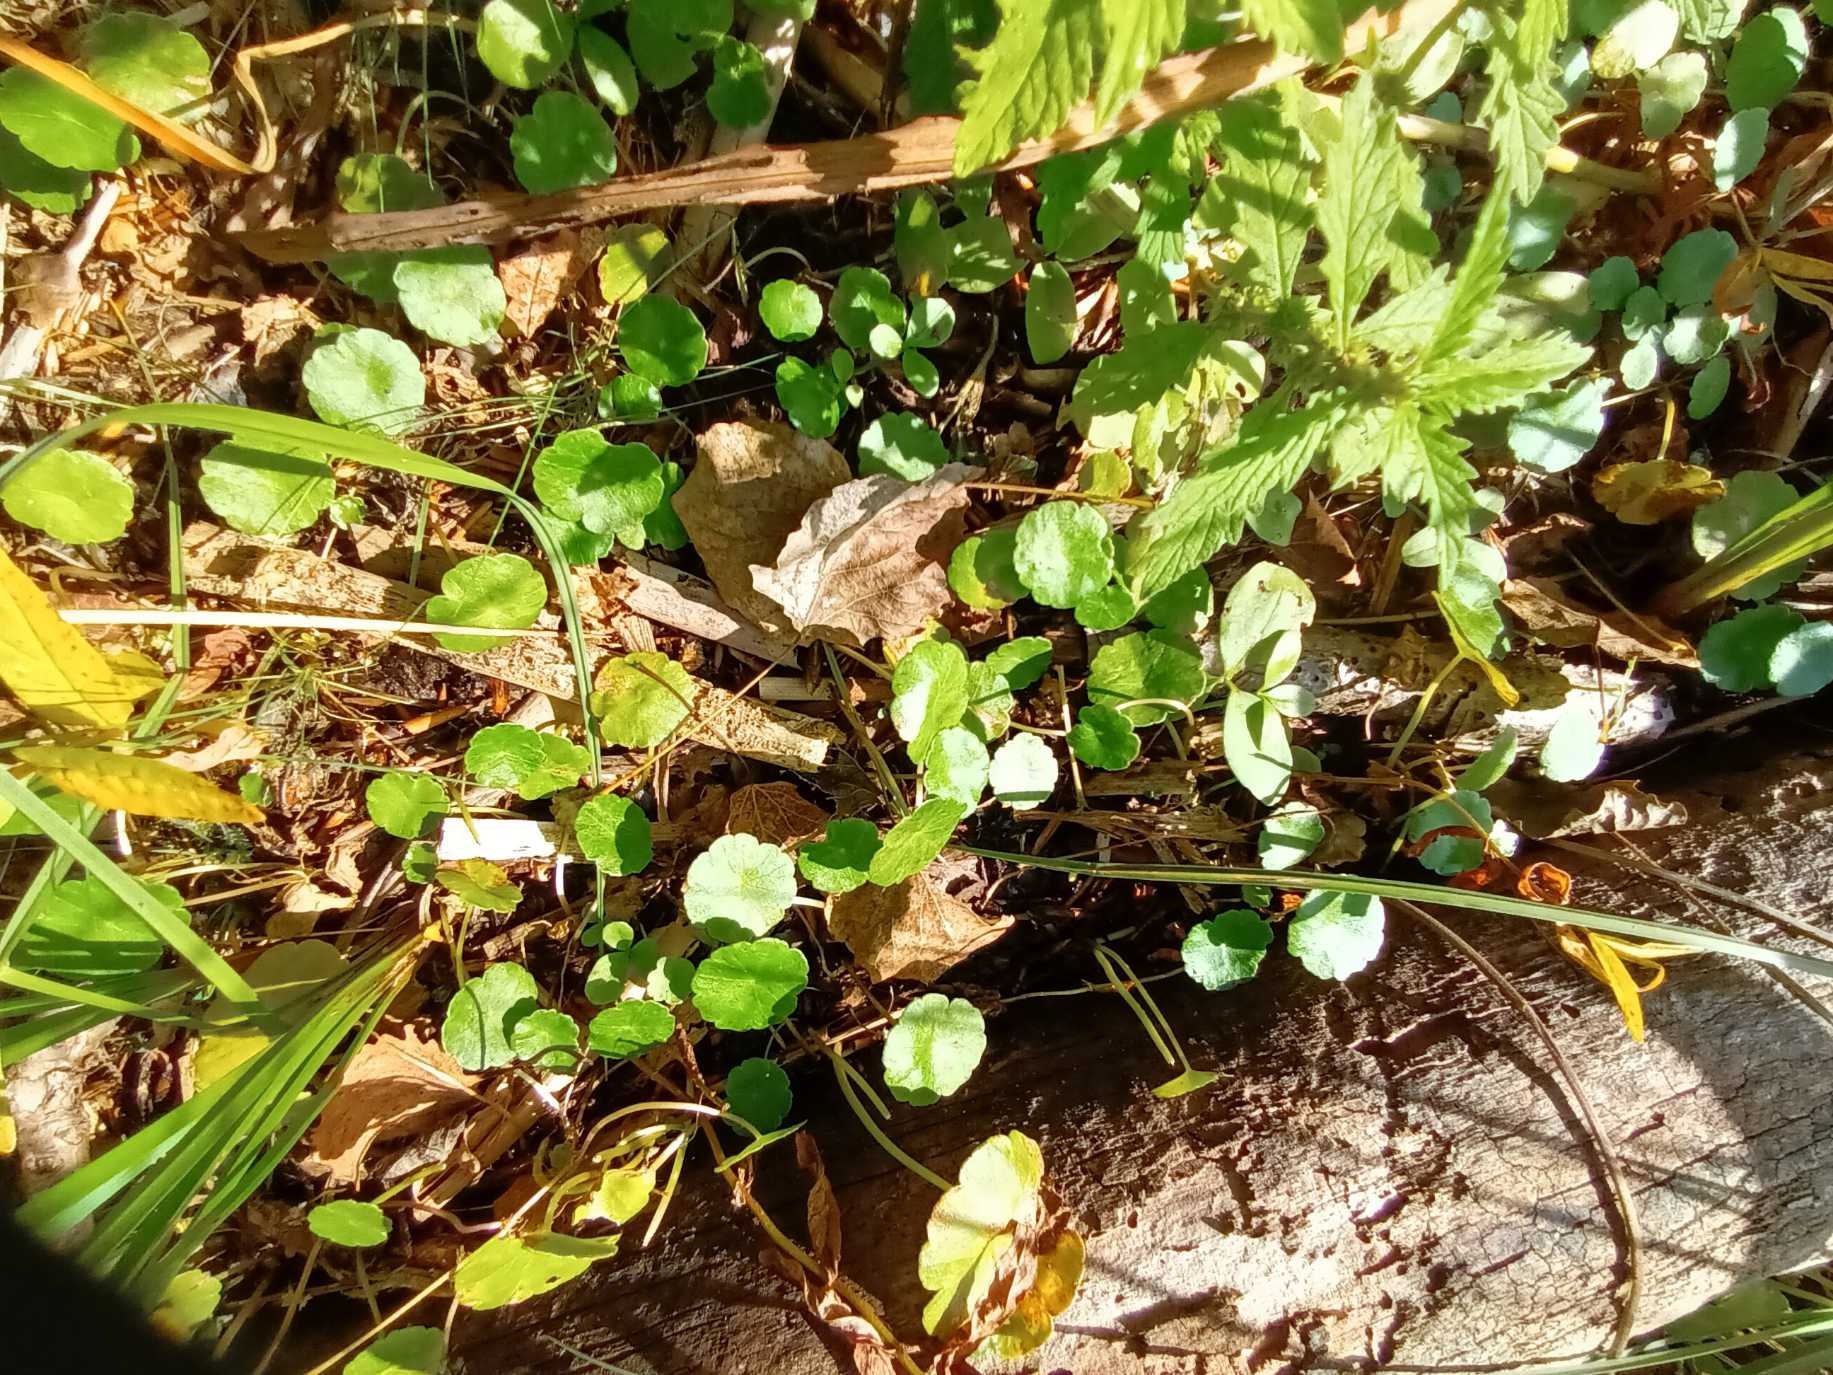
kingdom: Plantae
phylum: Tracheophyta
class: Magnoliopsida
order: Apiales
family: Araliaceae
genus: Hydrocotyle
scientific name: Hydrocotyle vulgaris
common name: Vandnavle
